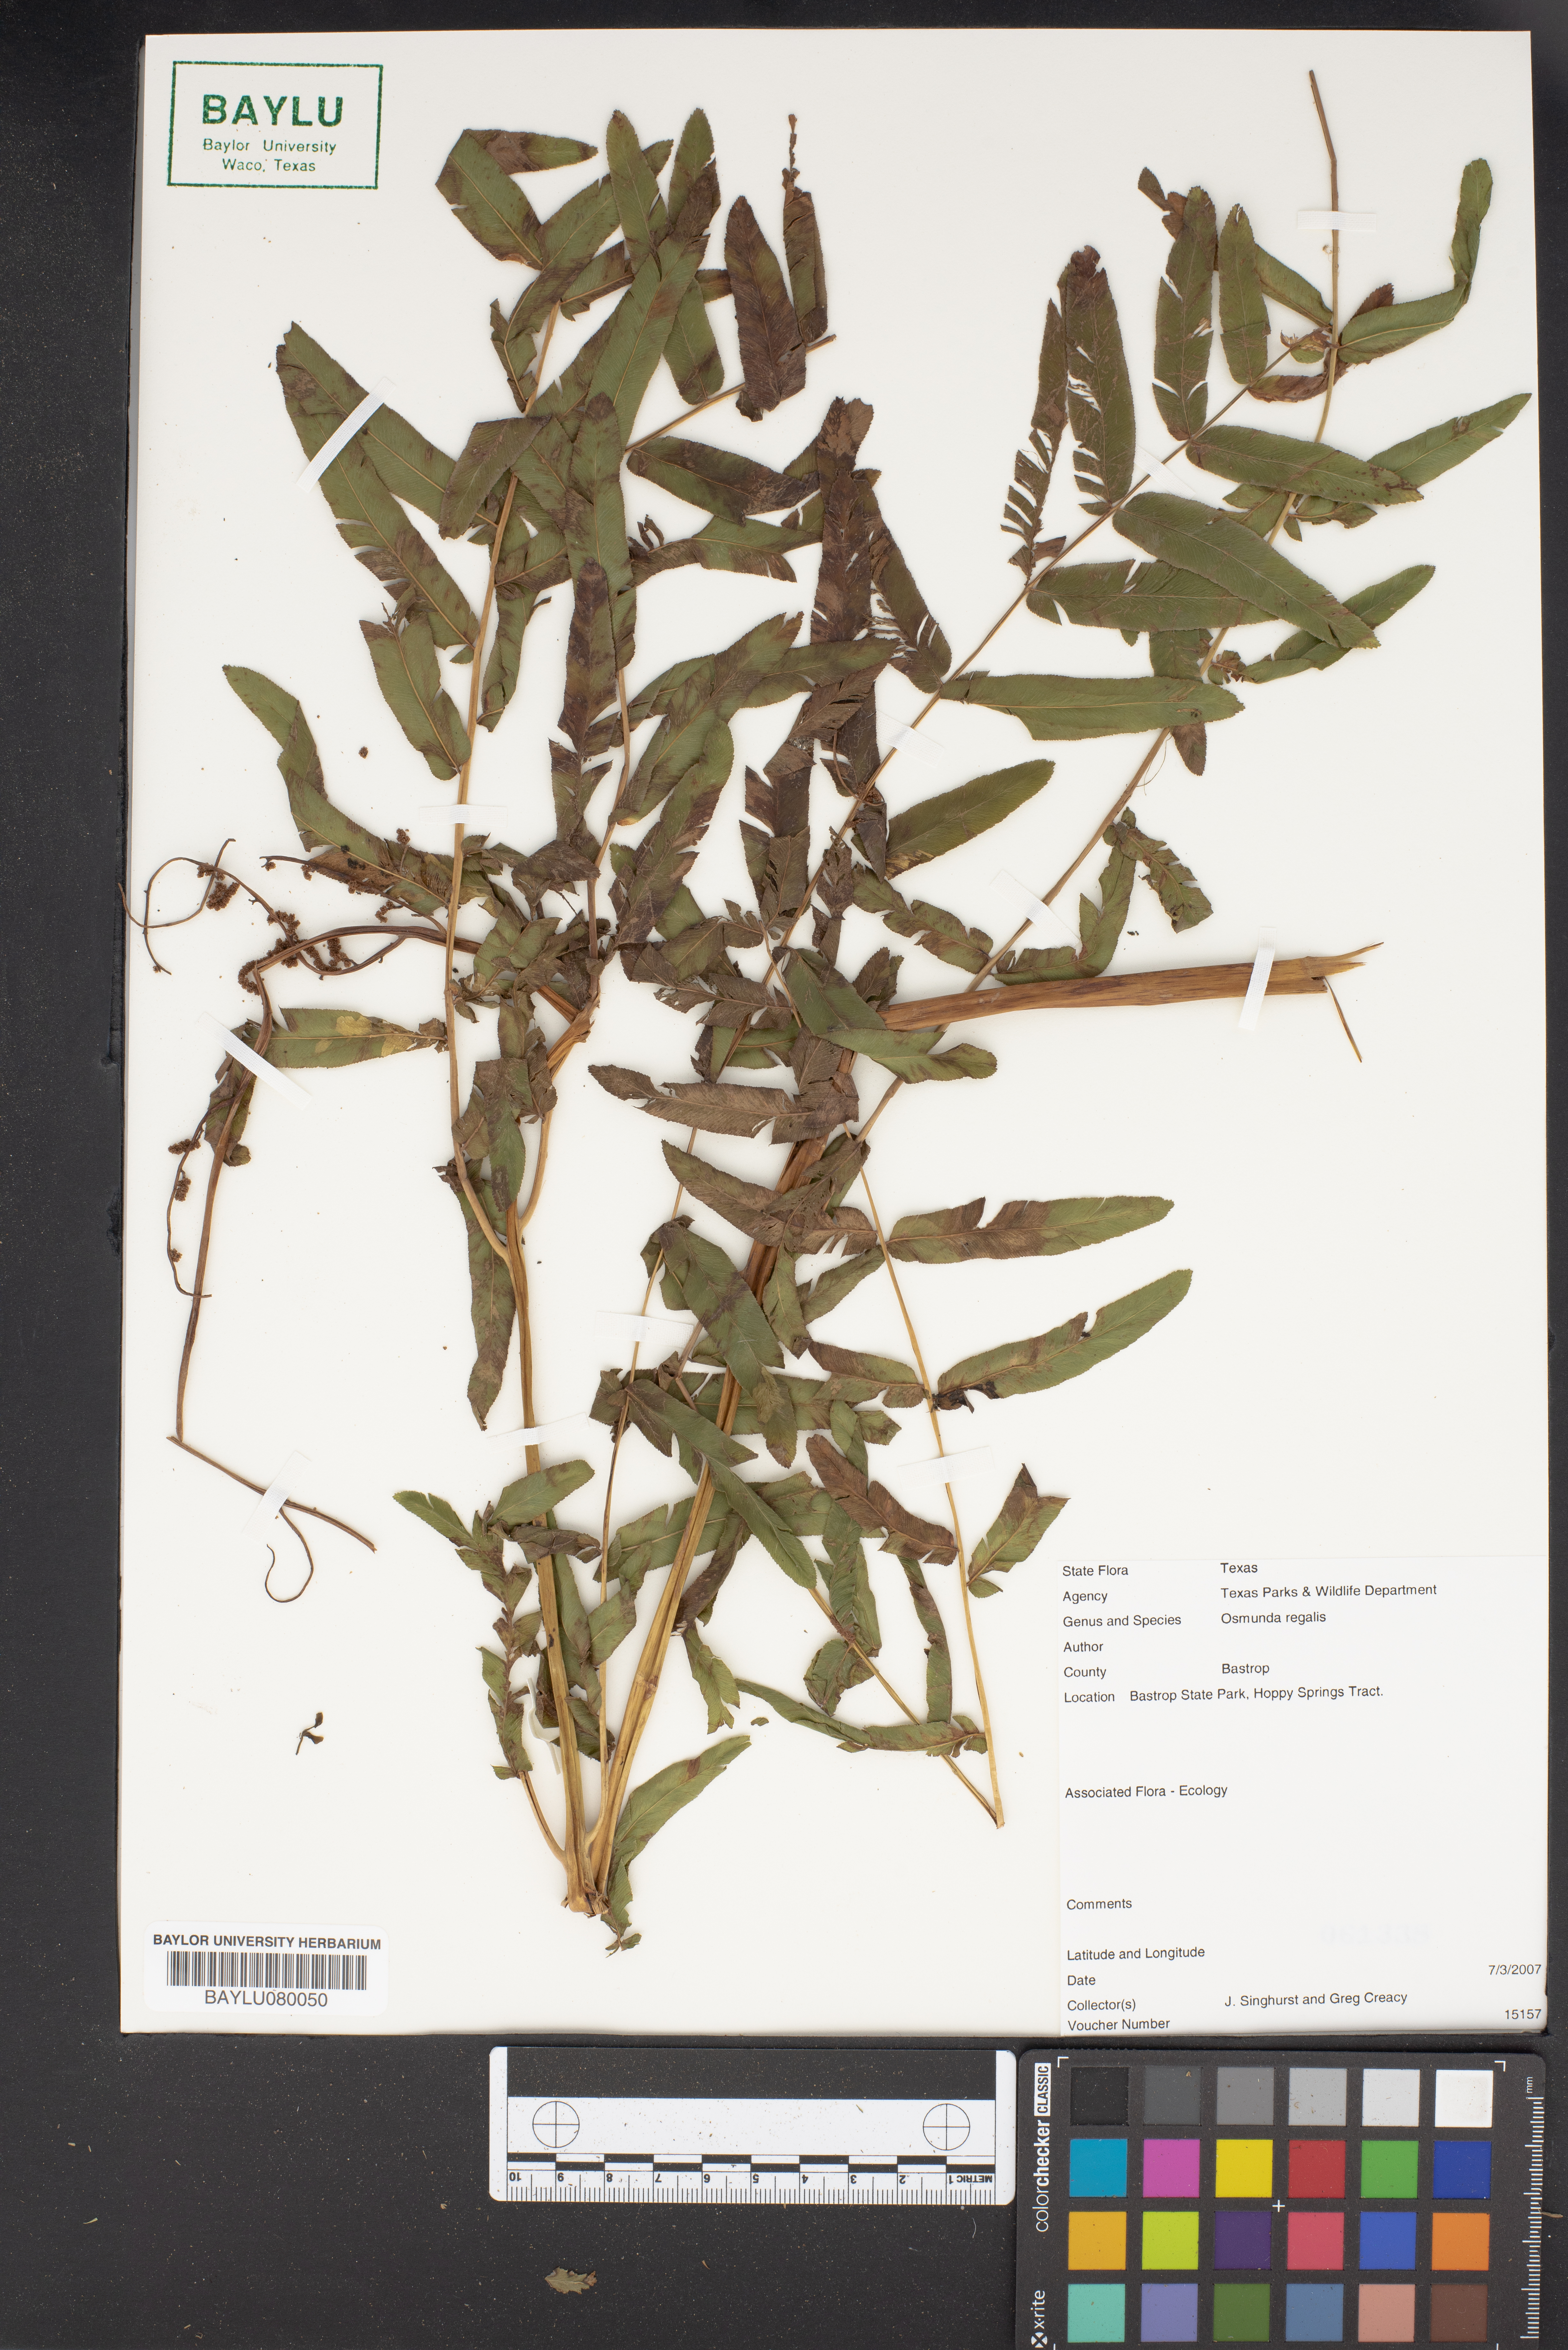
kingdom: Plantae
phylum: Tracheophyta
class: Polypodiopsida
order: Osmundales
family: Osmundaceae
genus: Osmunda
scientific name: Osmunda regalis
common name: Royal fern
